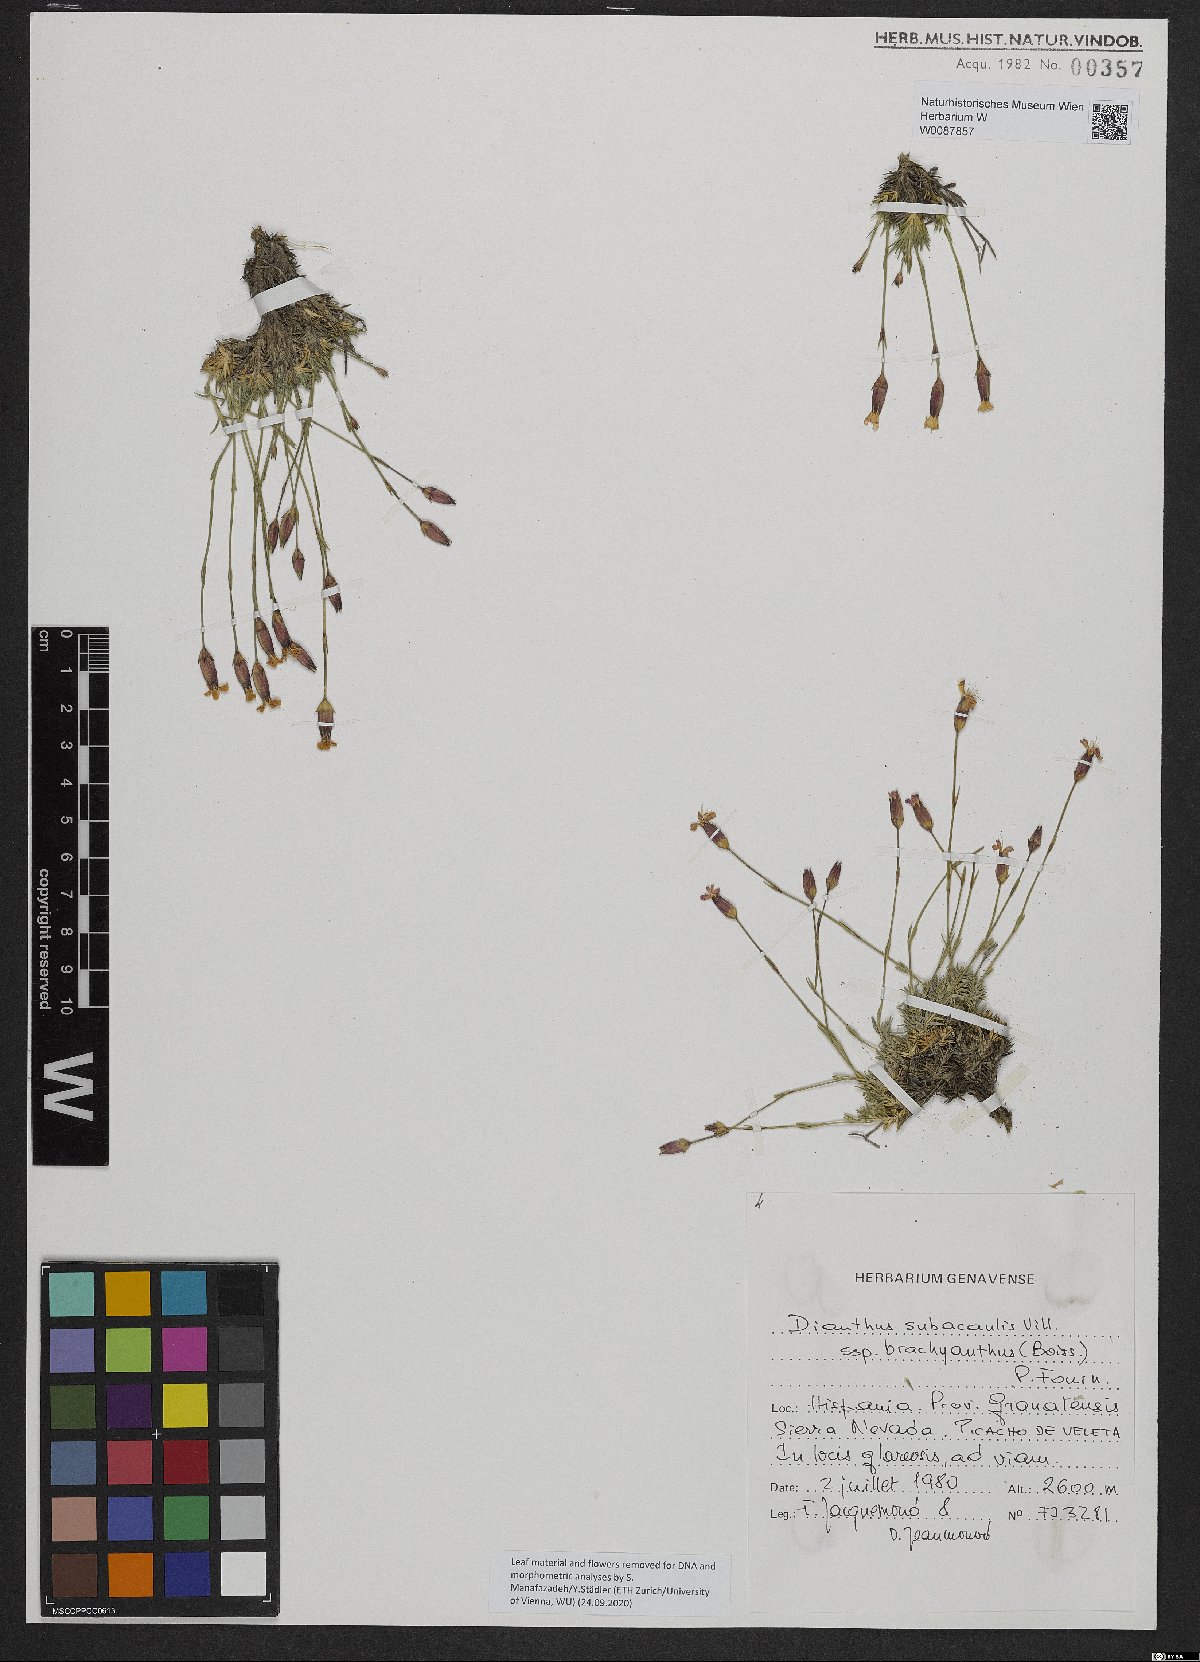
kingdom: Plantae
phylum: Tracheophyta
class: Magnoliopsida
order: Caryophyllales
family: Caryophyllaceae
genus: Dianthus
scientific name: Dianthus pungens
